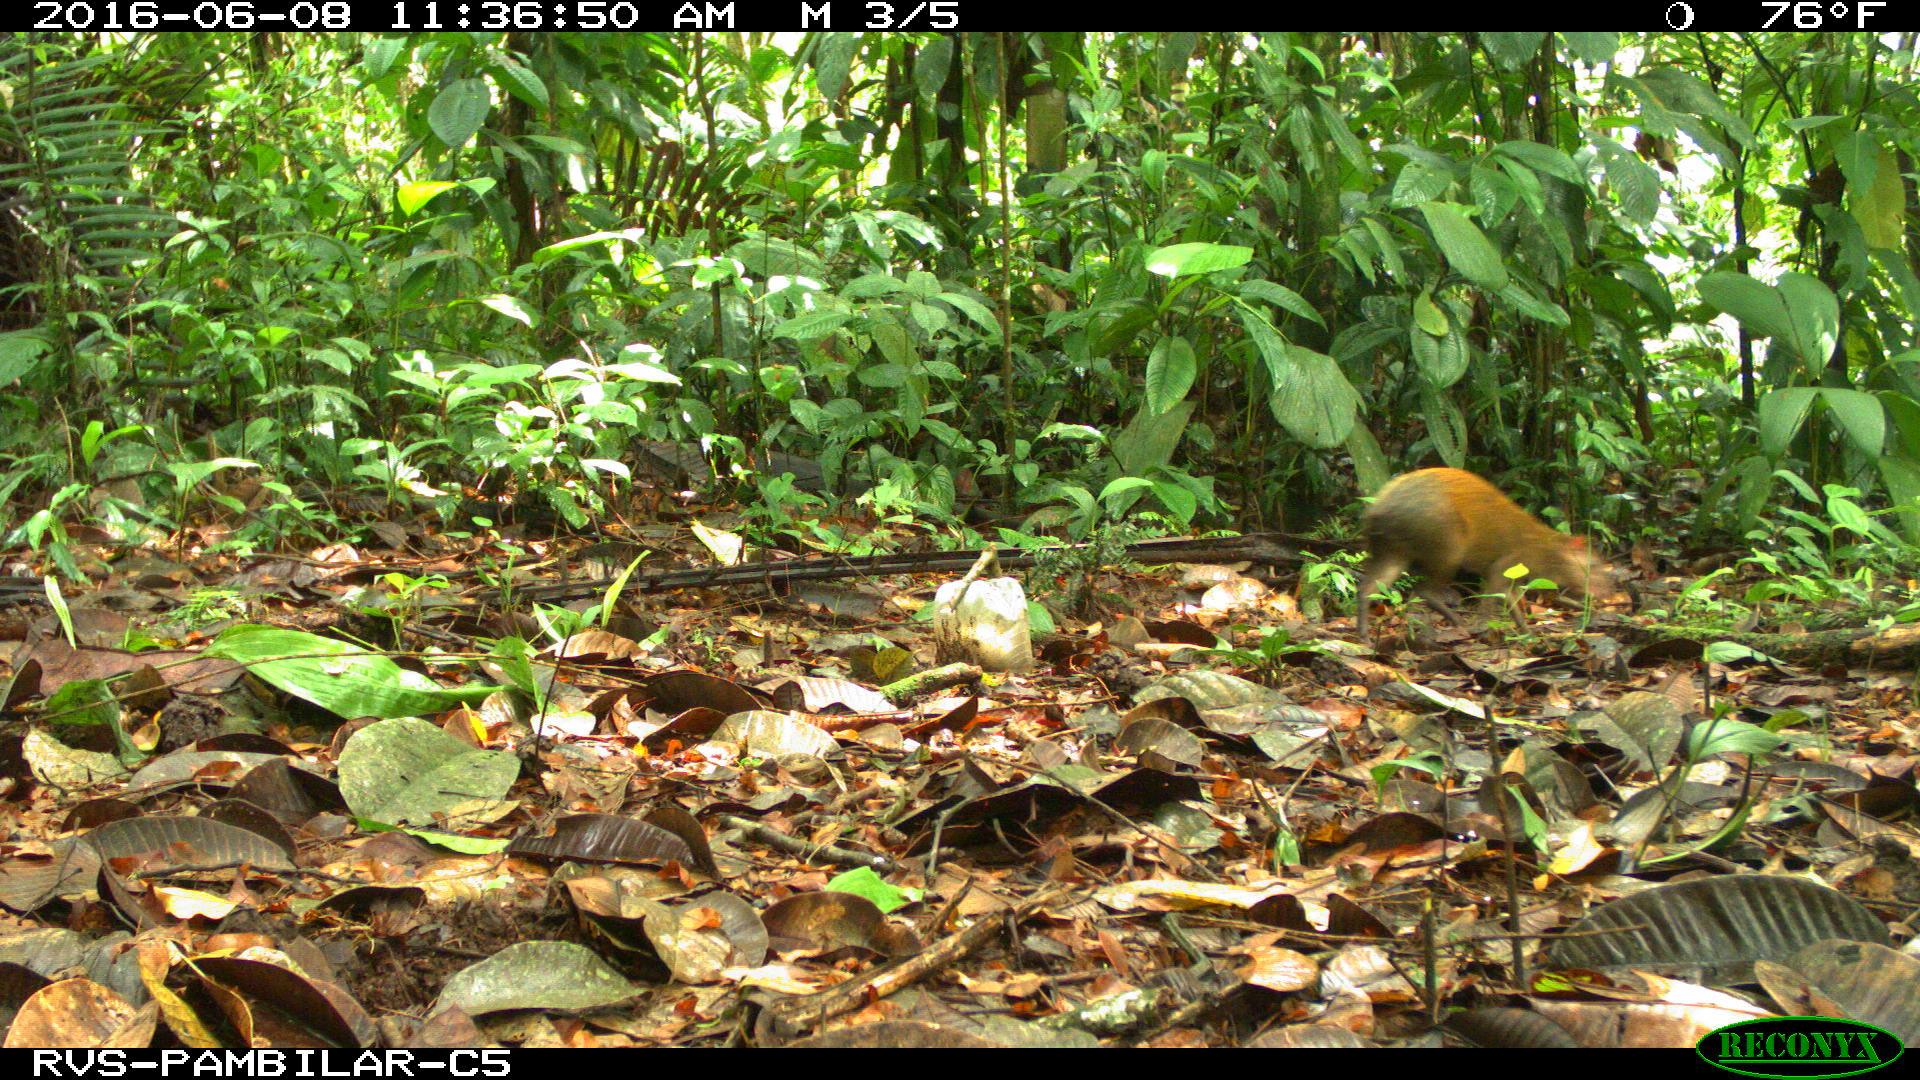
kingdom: Animalia
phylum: Chordata
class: Mammalia
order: Rodentia
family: Dasyproctidae
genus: Dasyprocta
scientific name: Dasyprocta punctata
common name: Central american agouti
